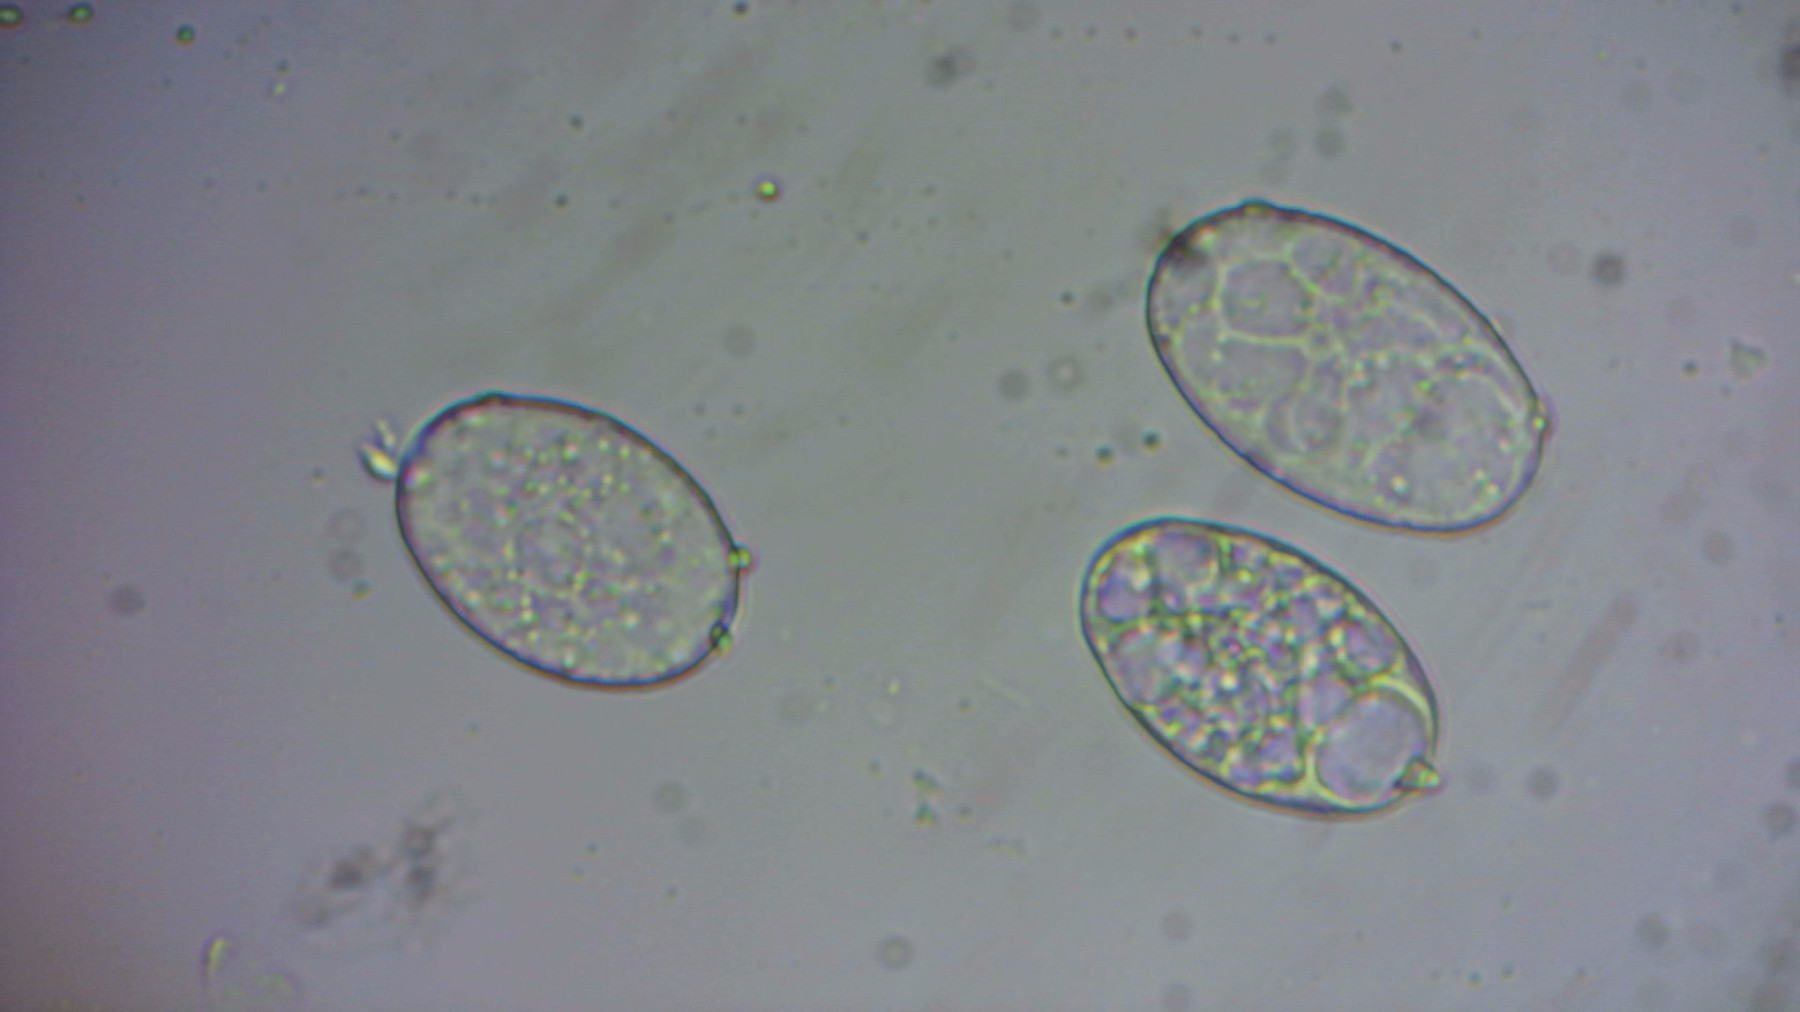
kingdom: Fungi
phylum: Ascomycota
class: Leotiomycetes
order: Helotiales
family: Erysiphaceae
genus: Golovinomyces
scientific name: Golovinomyces cichoracearum
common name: kurvblomst-meldug
